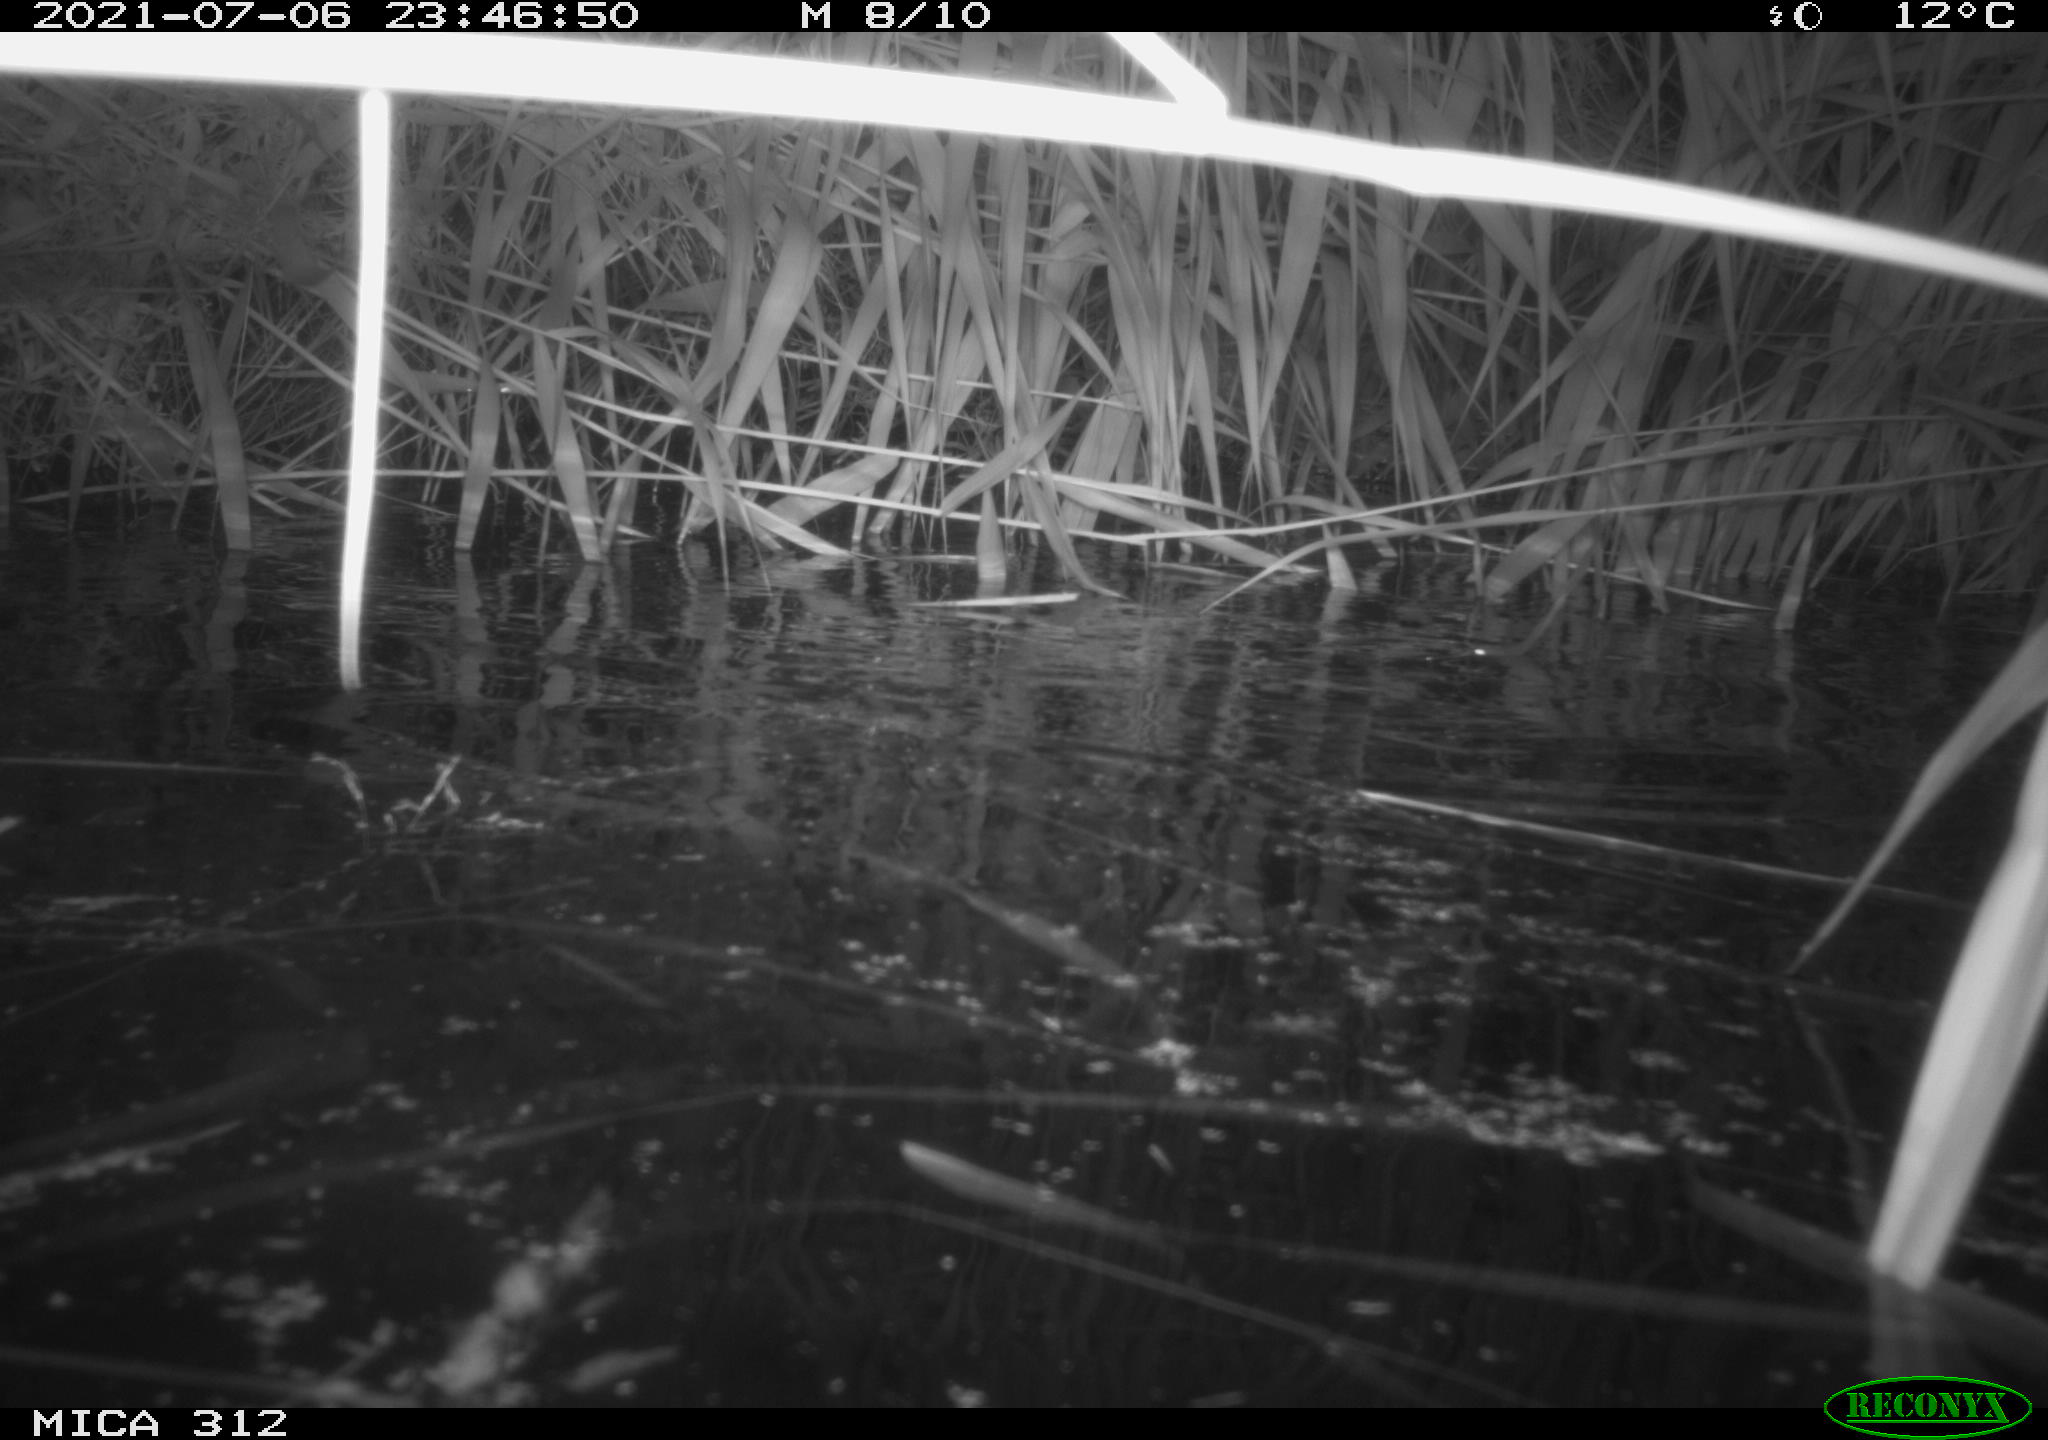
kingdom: Animalia
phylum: Chordata
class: Mammalia
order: Rodentia
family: Cricetidae
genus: Ondatra
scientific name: Ondatra zibethicus
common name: Muskrat
